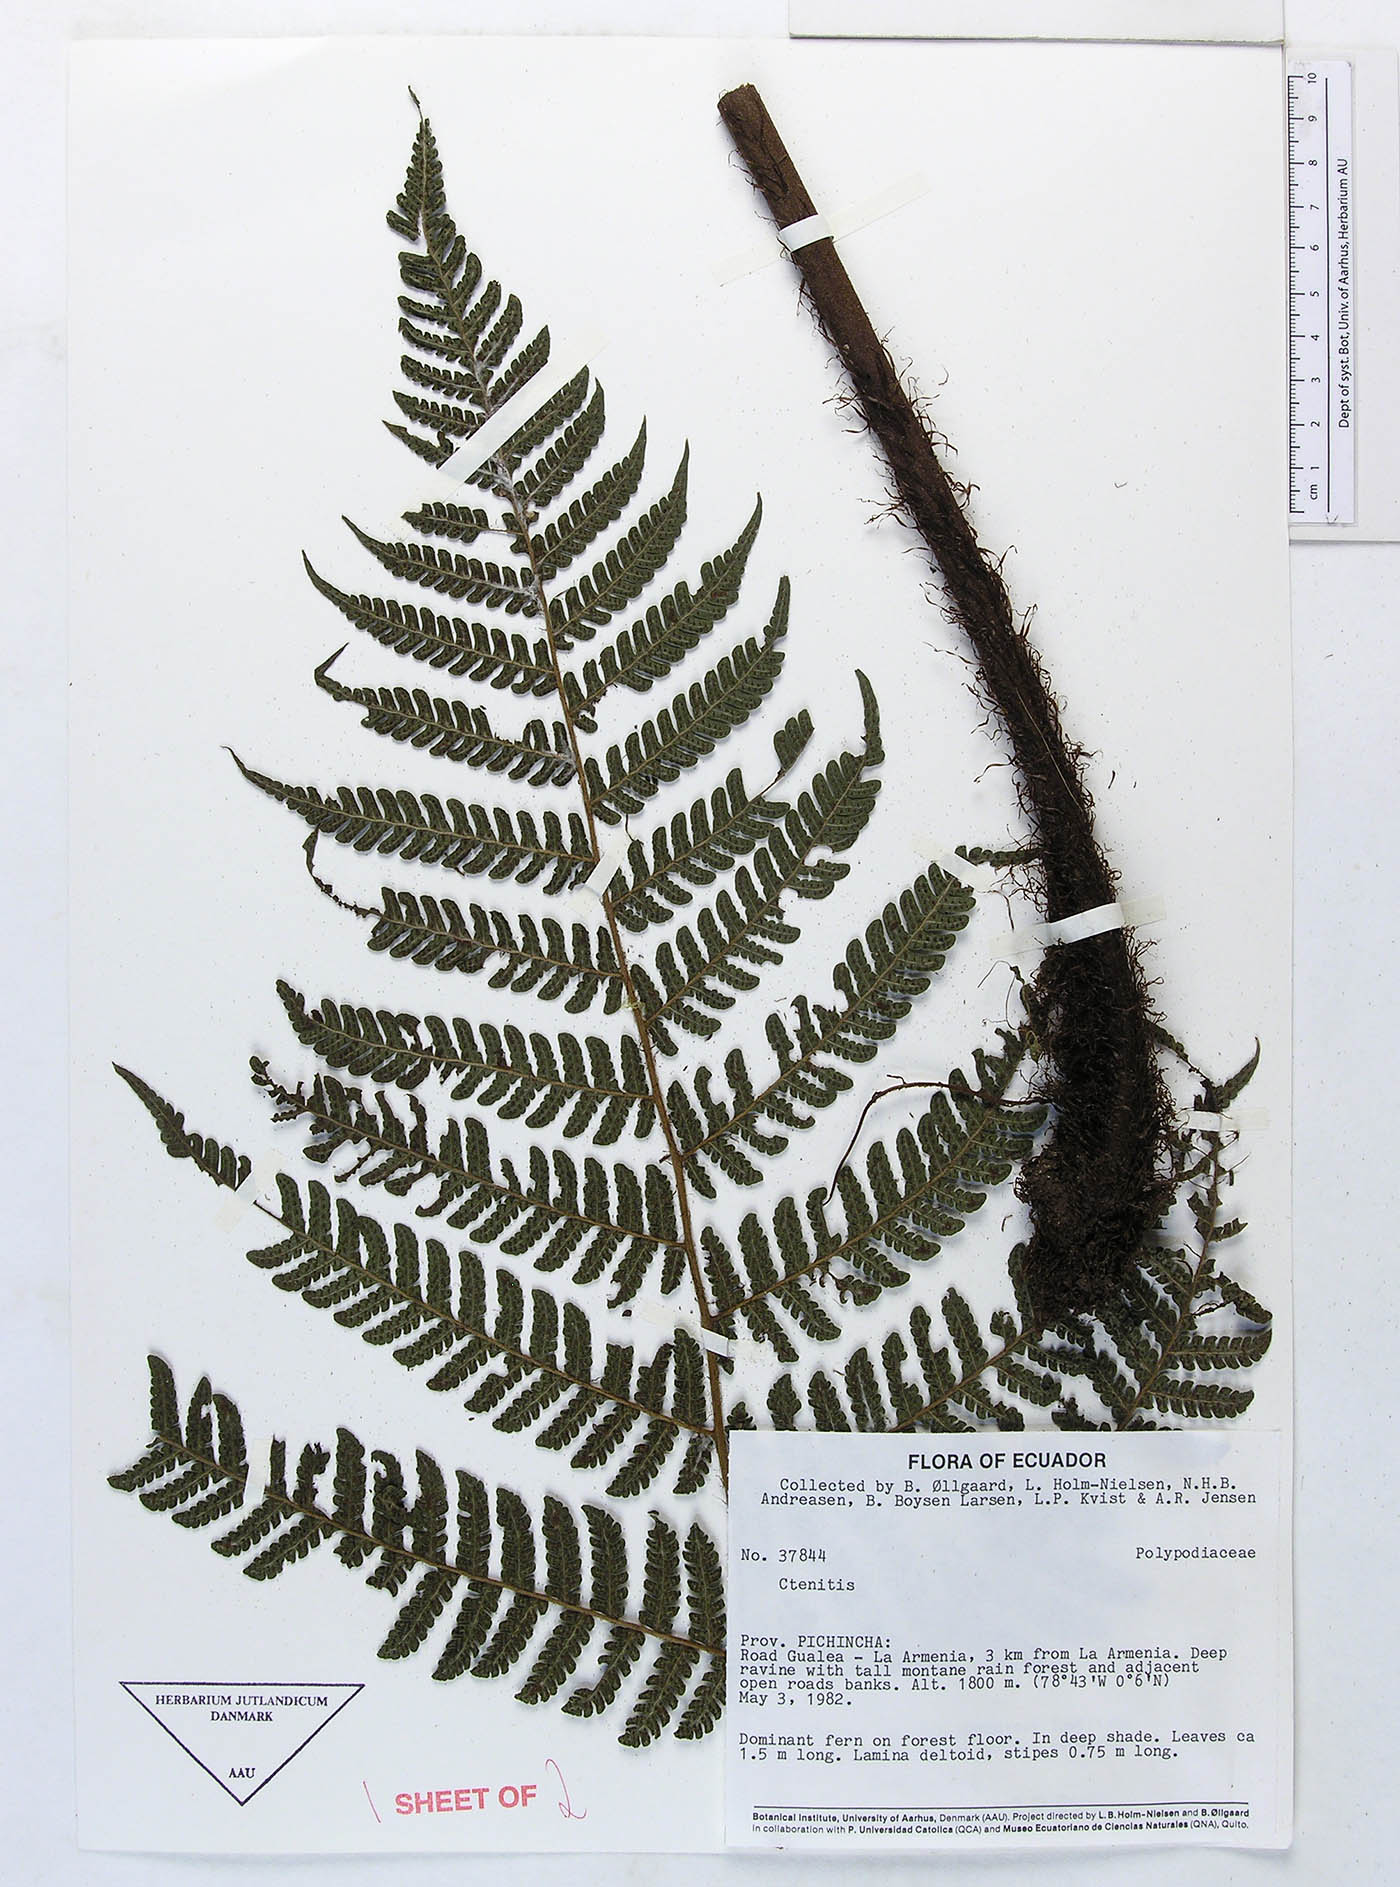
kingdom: Plantae
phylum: Tracheophyta
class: Polypodiopsida
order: Polypodiales
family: Dryopteridaceae
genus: Megalastrum
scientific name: Megalastrum vastum
